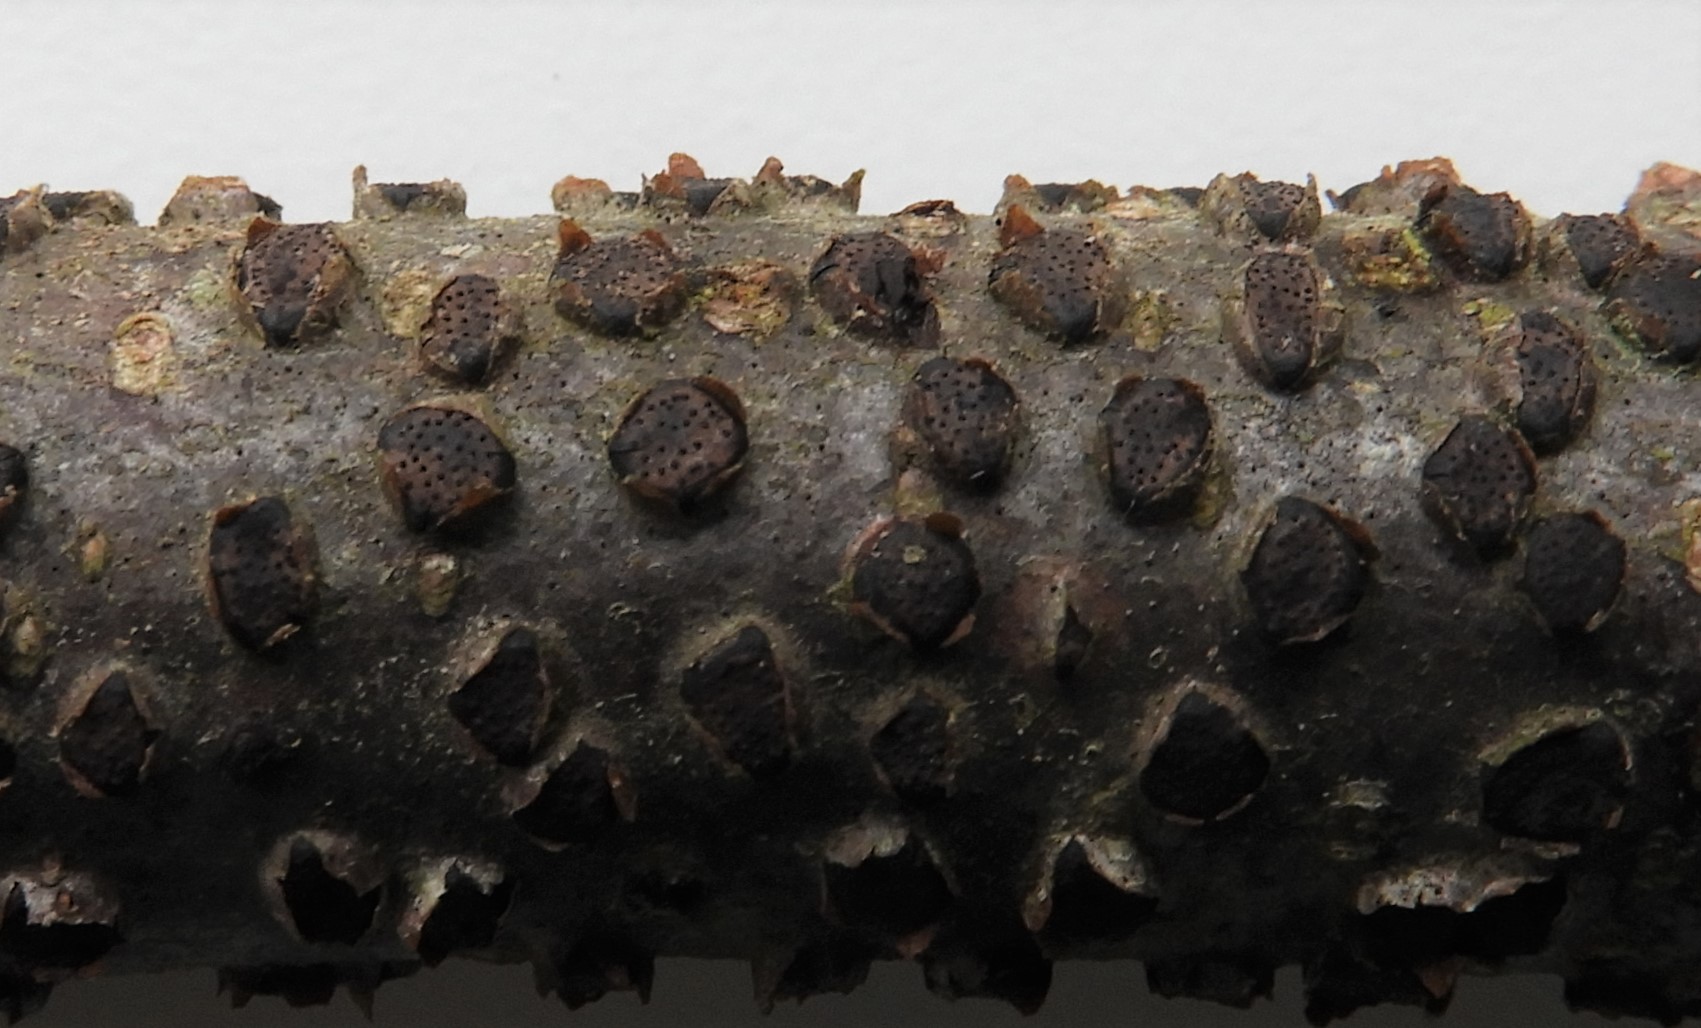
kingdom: Fungi
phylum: Ascomycota
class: Sordariomycetes
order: Xylariales
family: Diatrypaceae
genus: Diatrype
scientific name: Diatrype disciformis
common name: kant-kulskorpe
